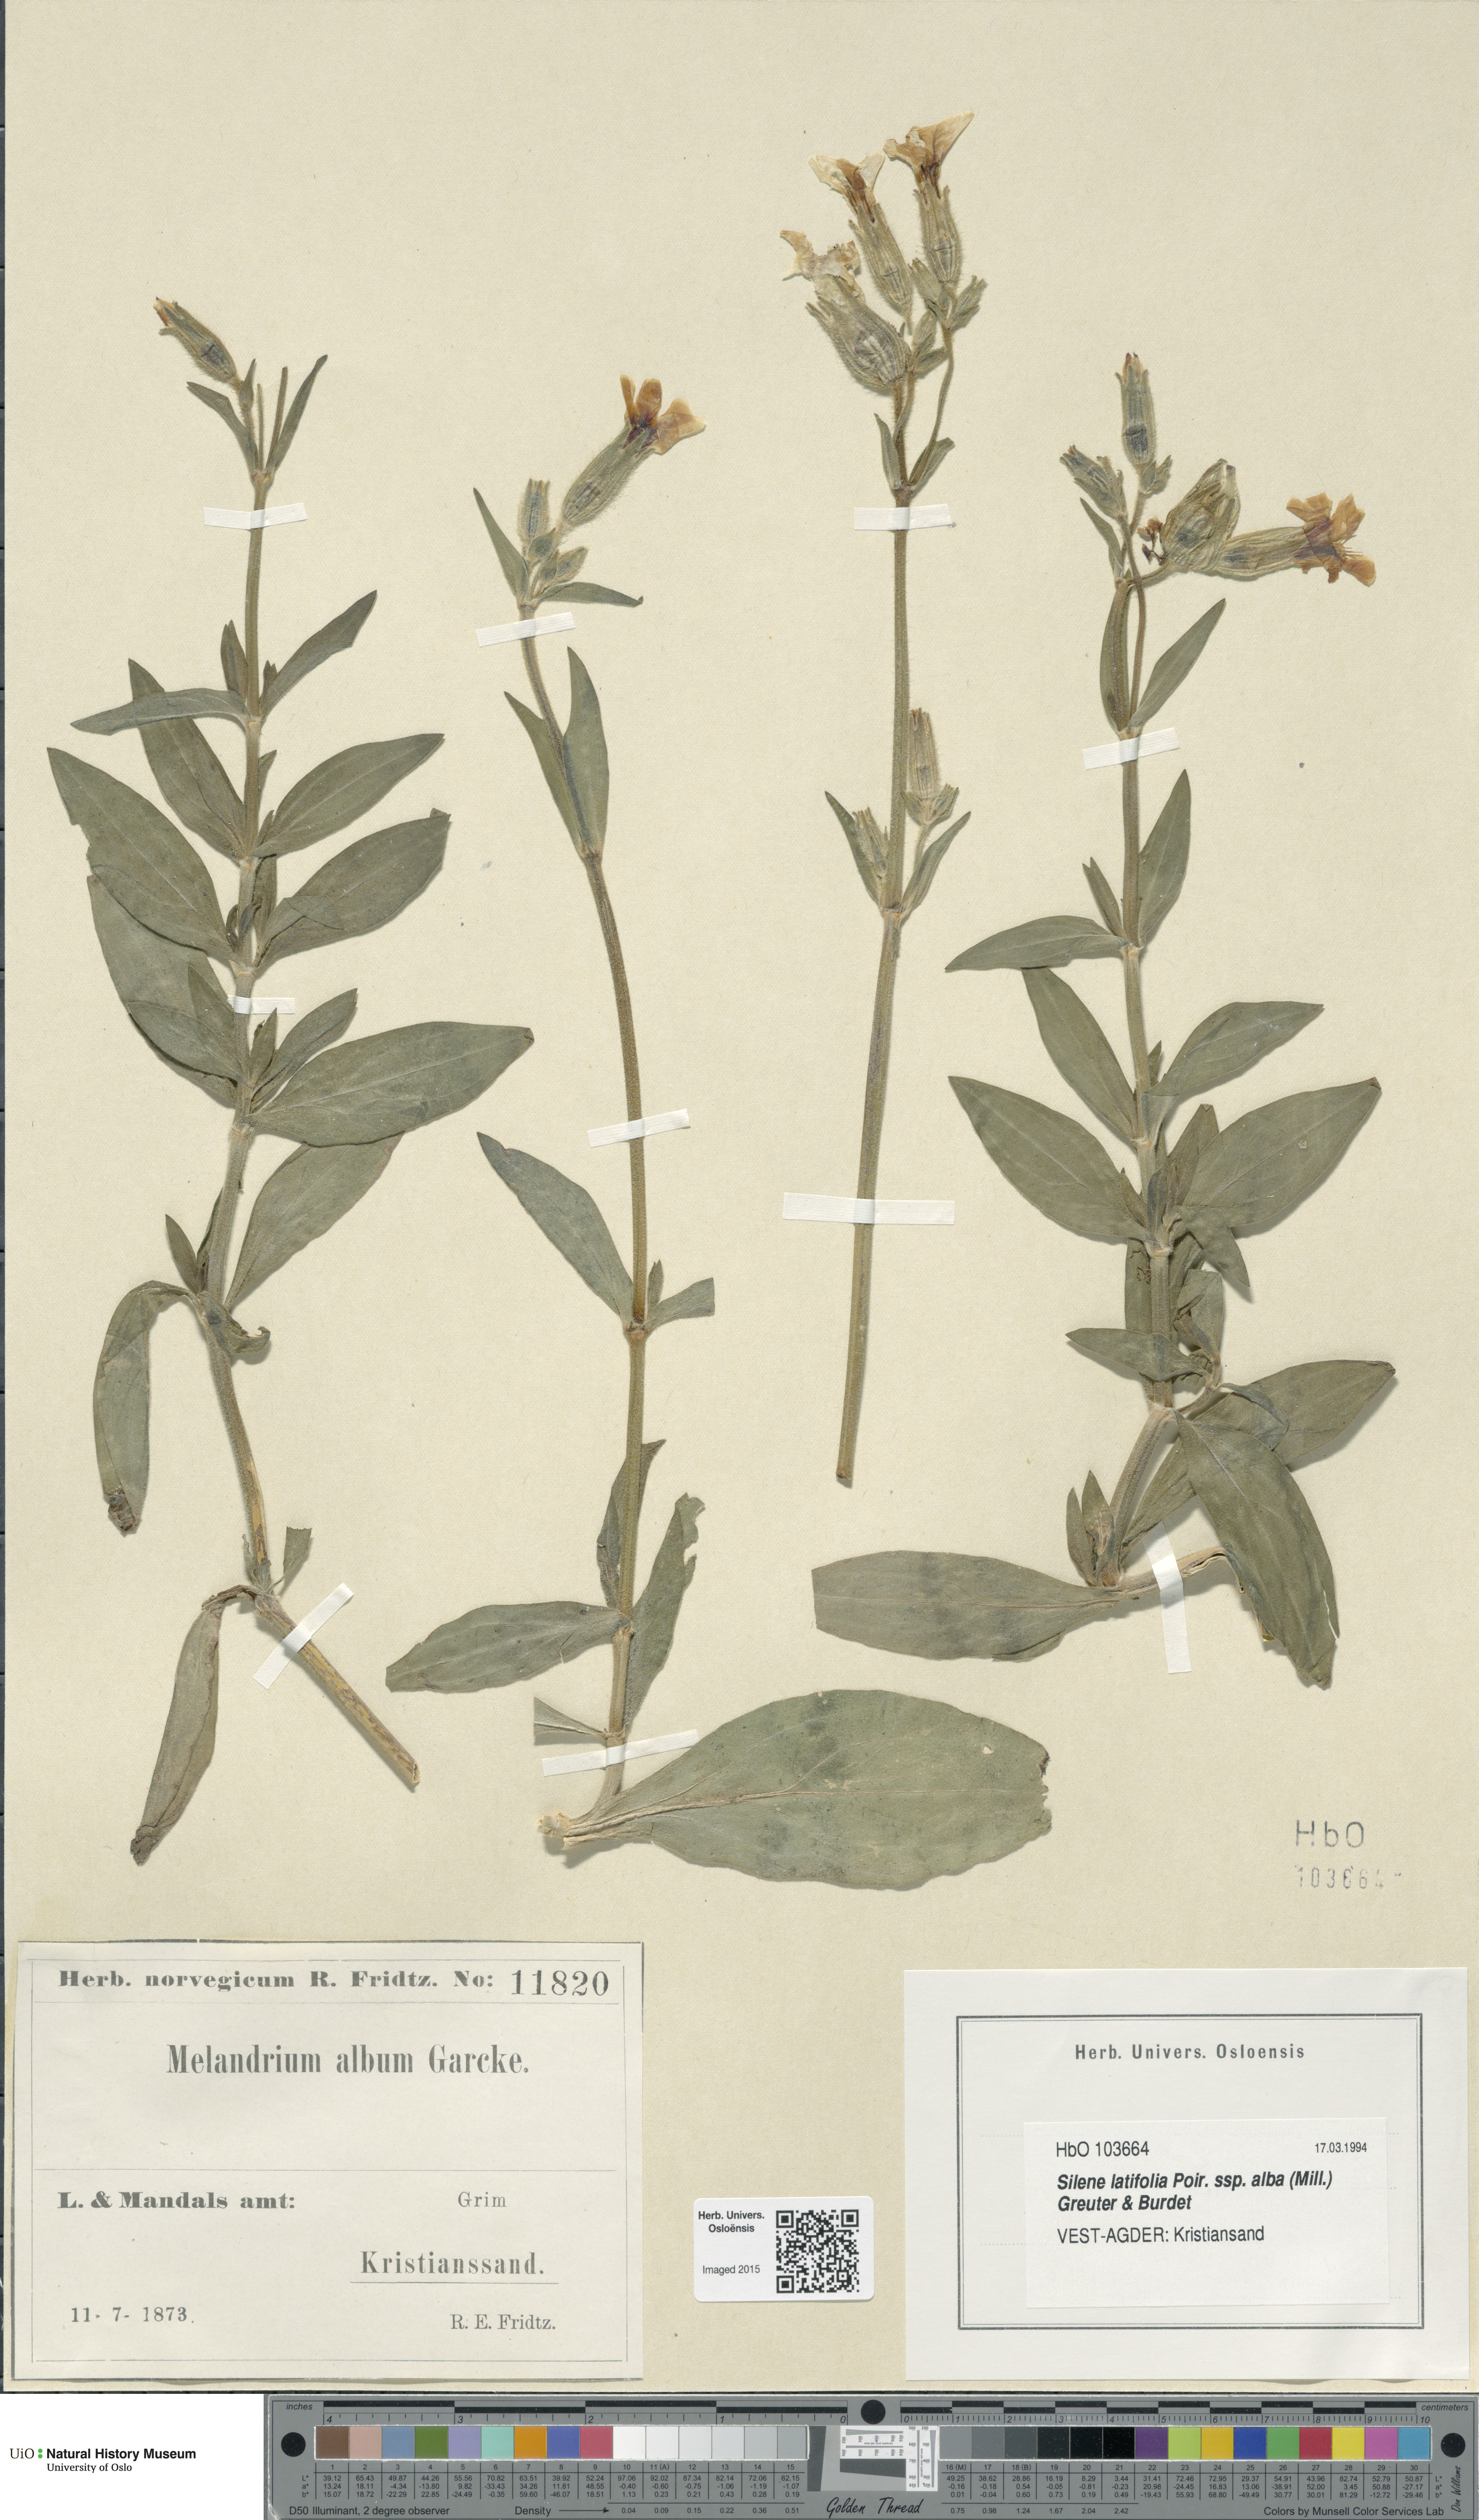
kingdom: Plantae
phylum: Tracheophyta
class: Magnoliopsida
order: Caryophyllales
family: Caryophyllaceae
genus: Silene
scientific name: Silene latifolia
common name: White campion
